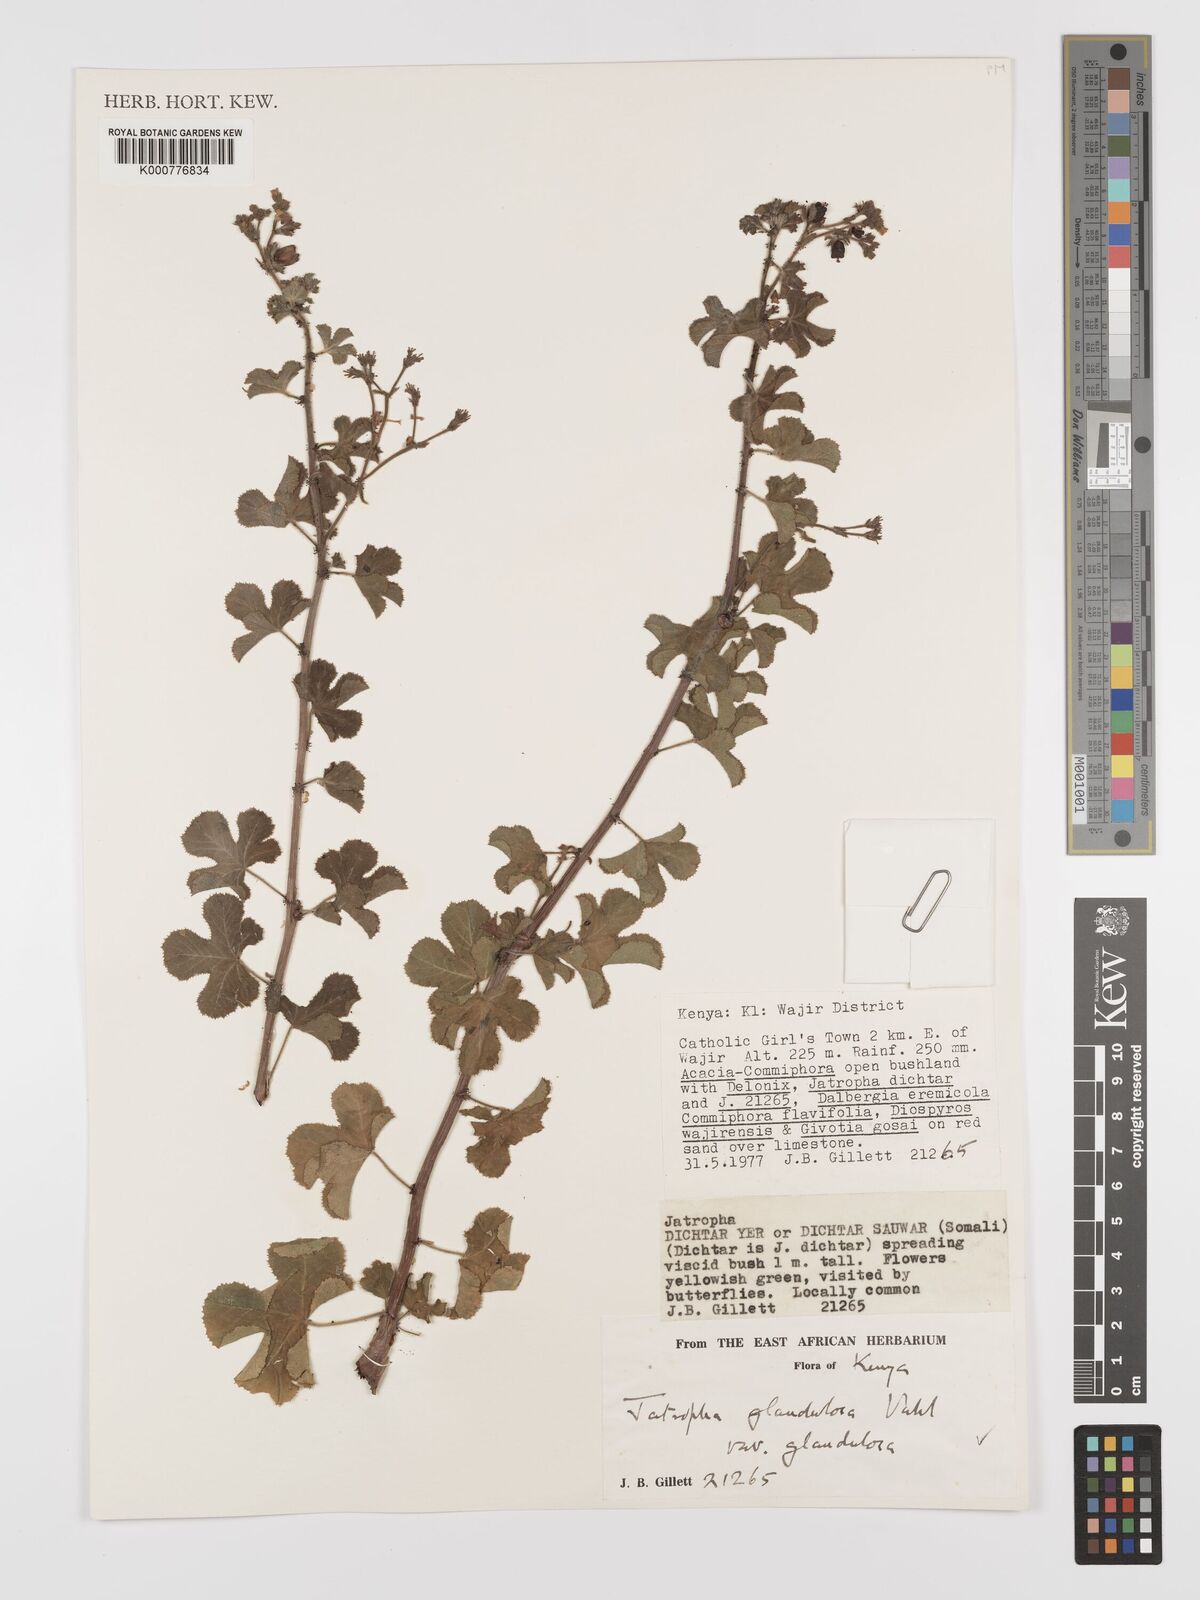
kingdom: Plantae
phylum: Tracheophyta
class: Magnoliopsida
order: Malpighiales
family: Euphorbiaceae
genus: Jatropha
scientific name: Jatropha pelargoniifolia
